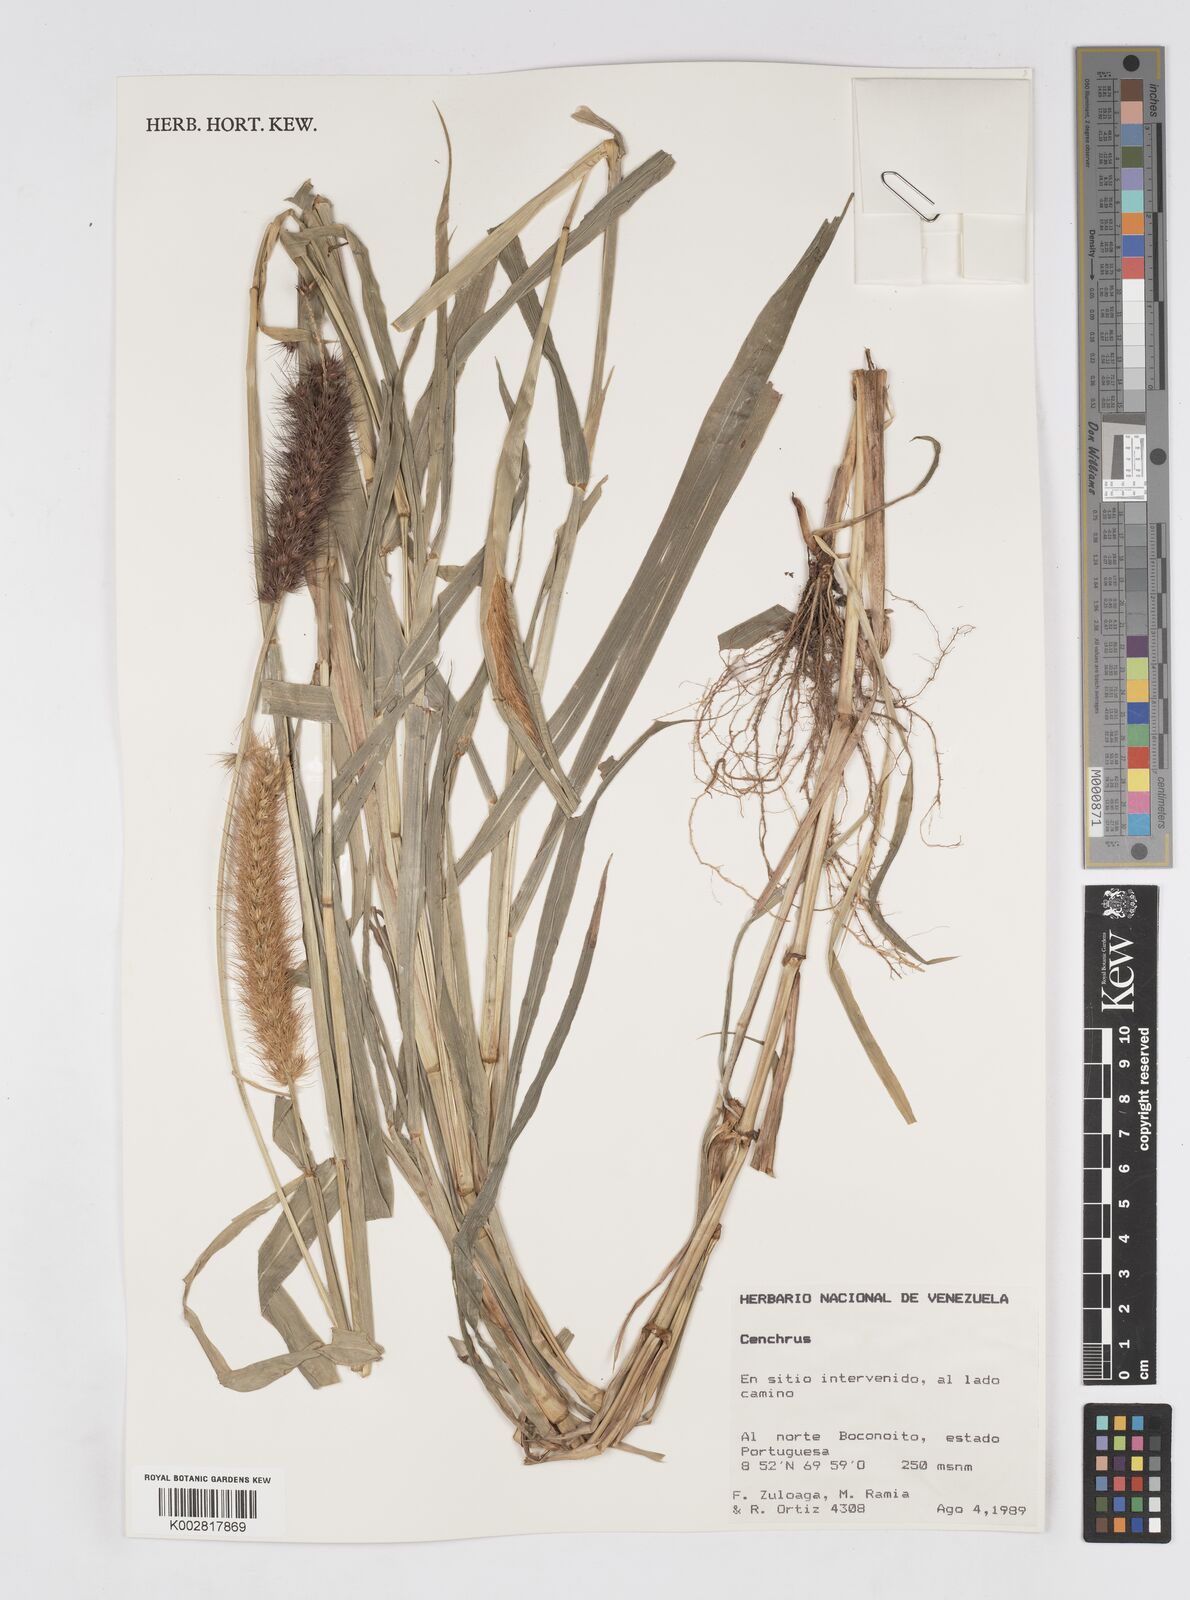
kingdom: Plantae
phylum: Tracheophyta
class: Liliopsida
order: Poales
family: Poaceae
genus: Cenchrus
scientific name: Cenchrus pilosus
